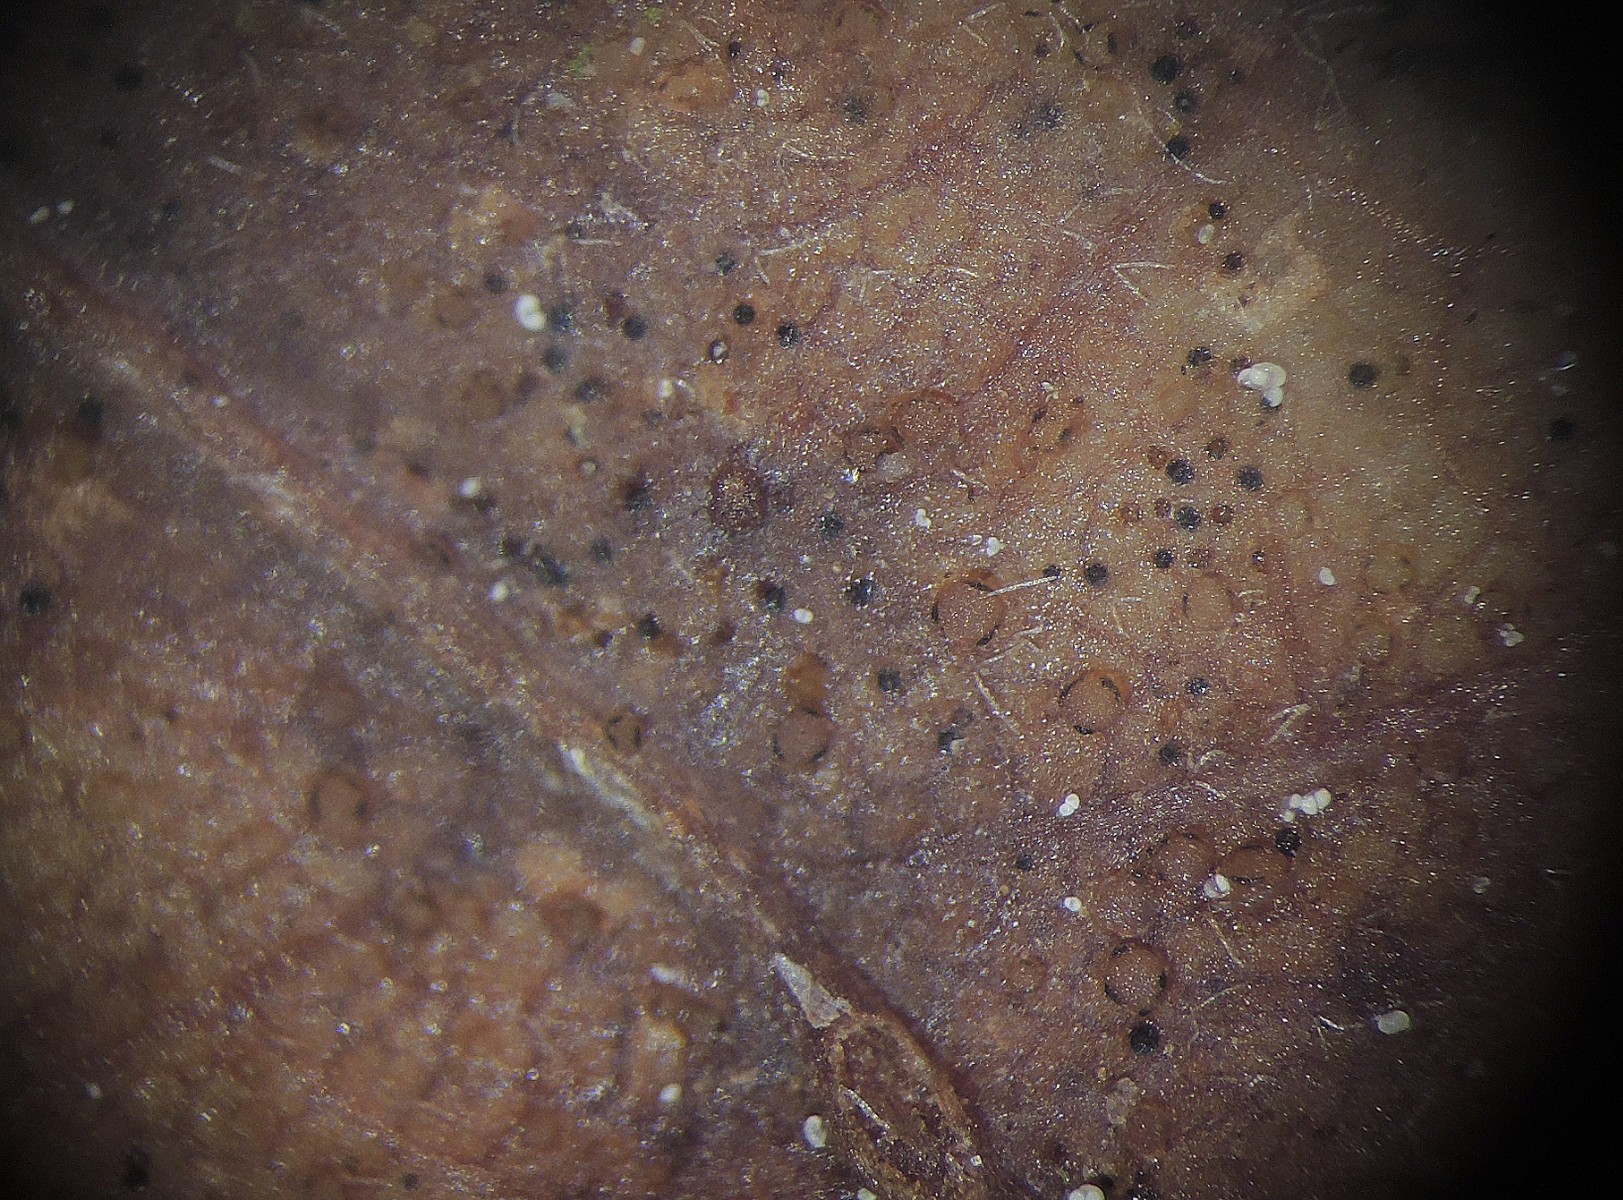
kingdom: Fungi
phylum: Ascomycota
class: Leotiomycetes
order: Helotiales
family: Discinellaceae
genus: Naevala
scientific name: Naevala perexigua
